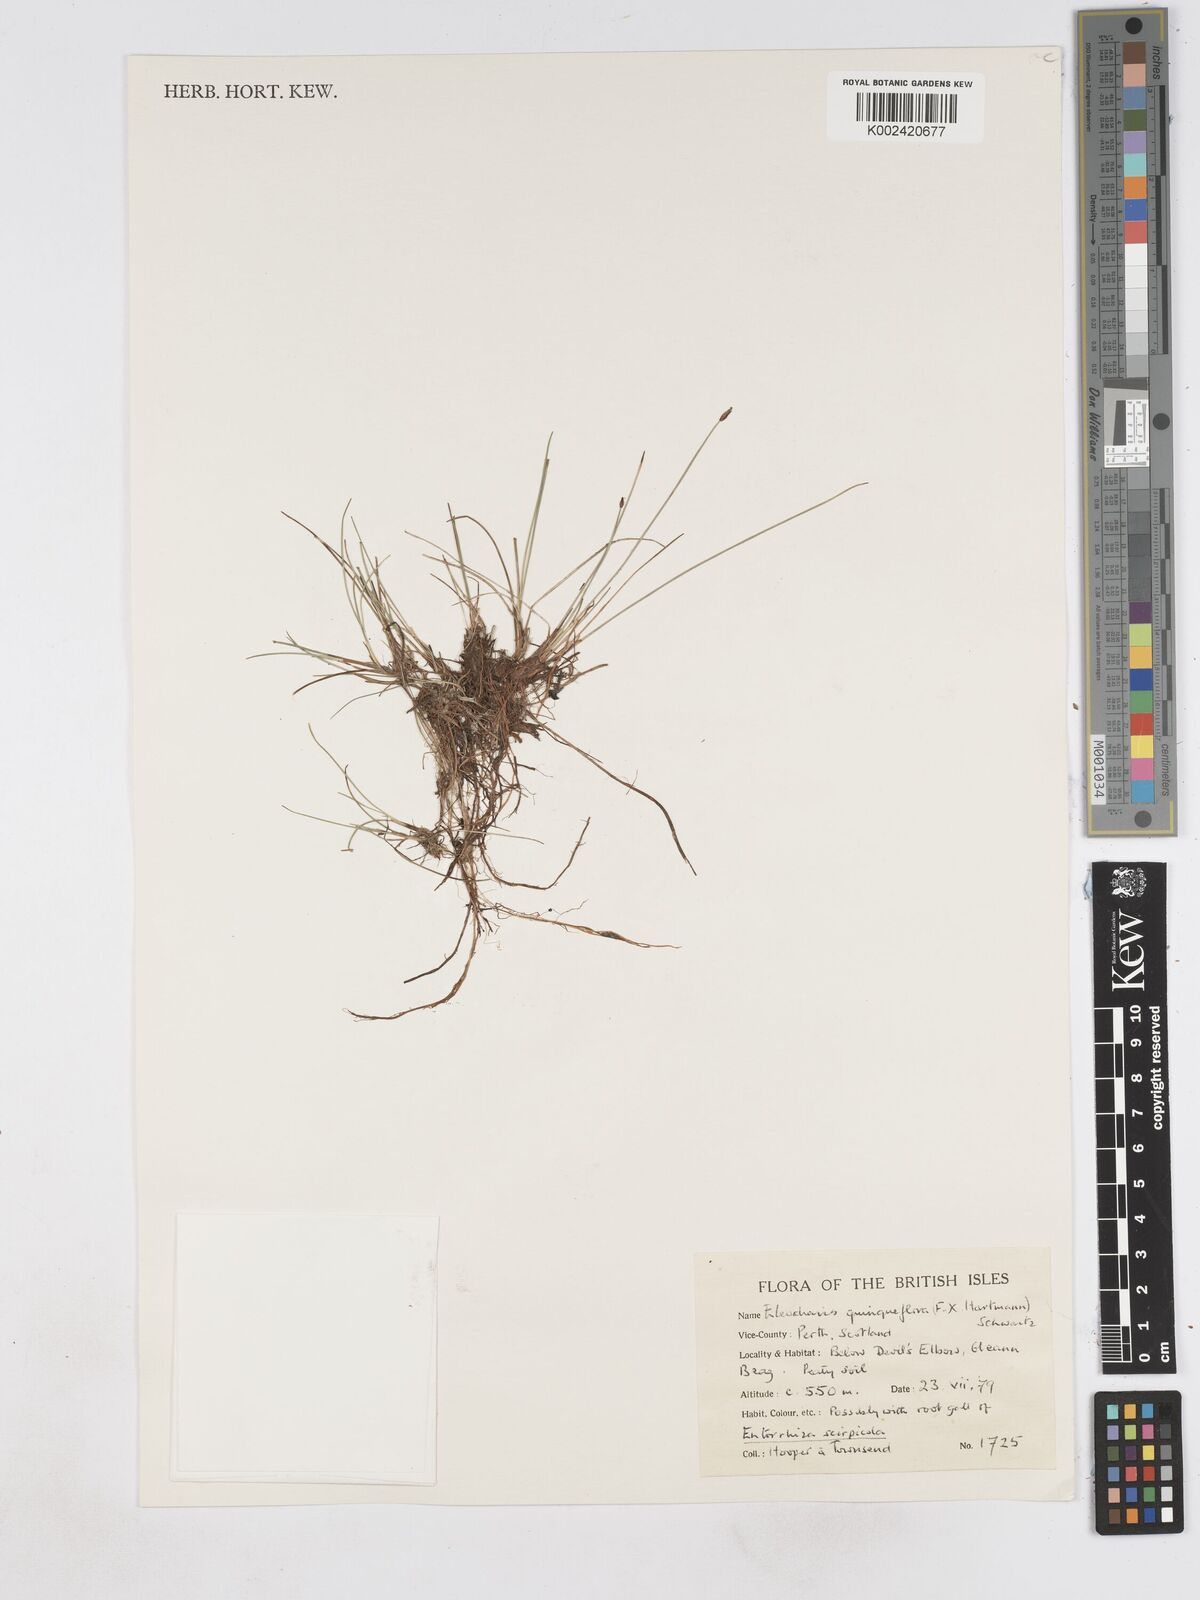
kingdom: Plantae
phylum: Tracheophyta
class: Liliopsida
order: Poales
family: Cyperaceae
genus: Eleocharis
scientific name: Eleocharis quinqueflora
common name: Few-flowered spike-rush
